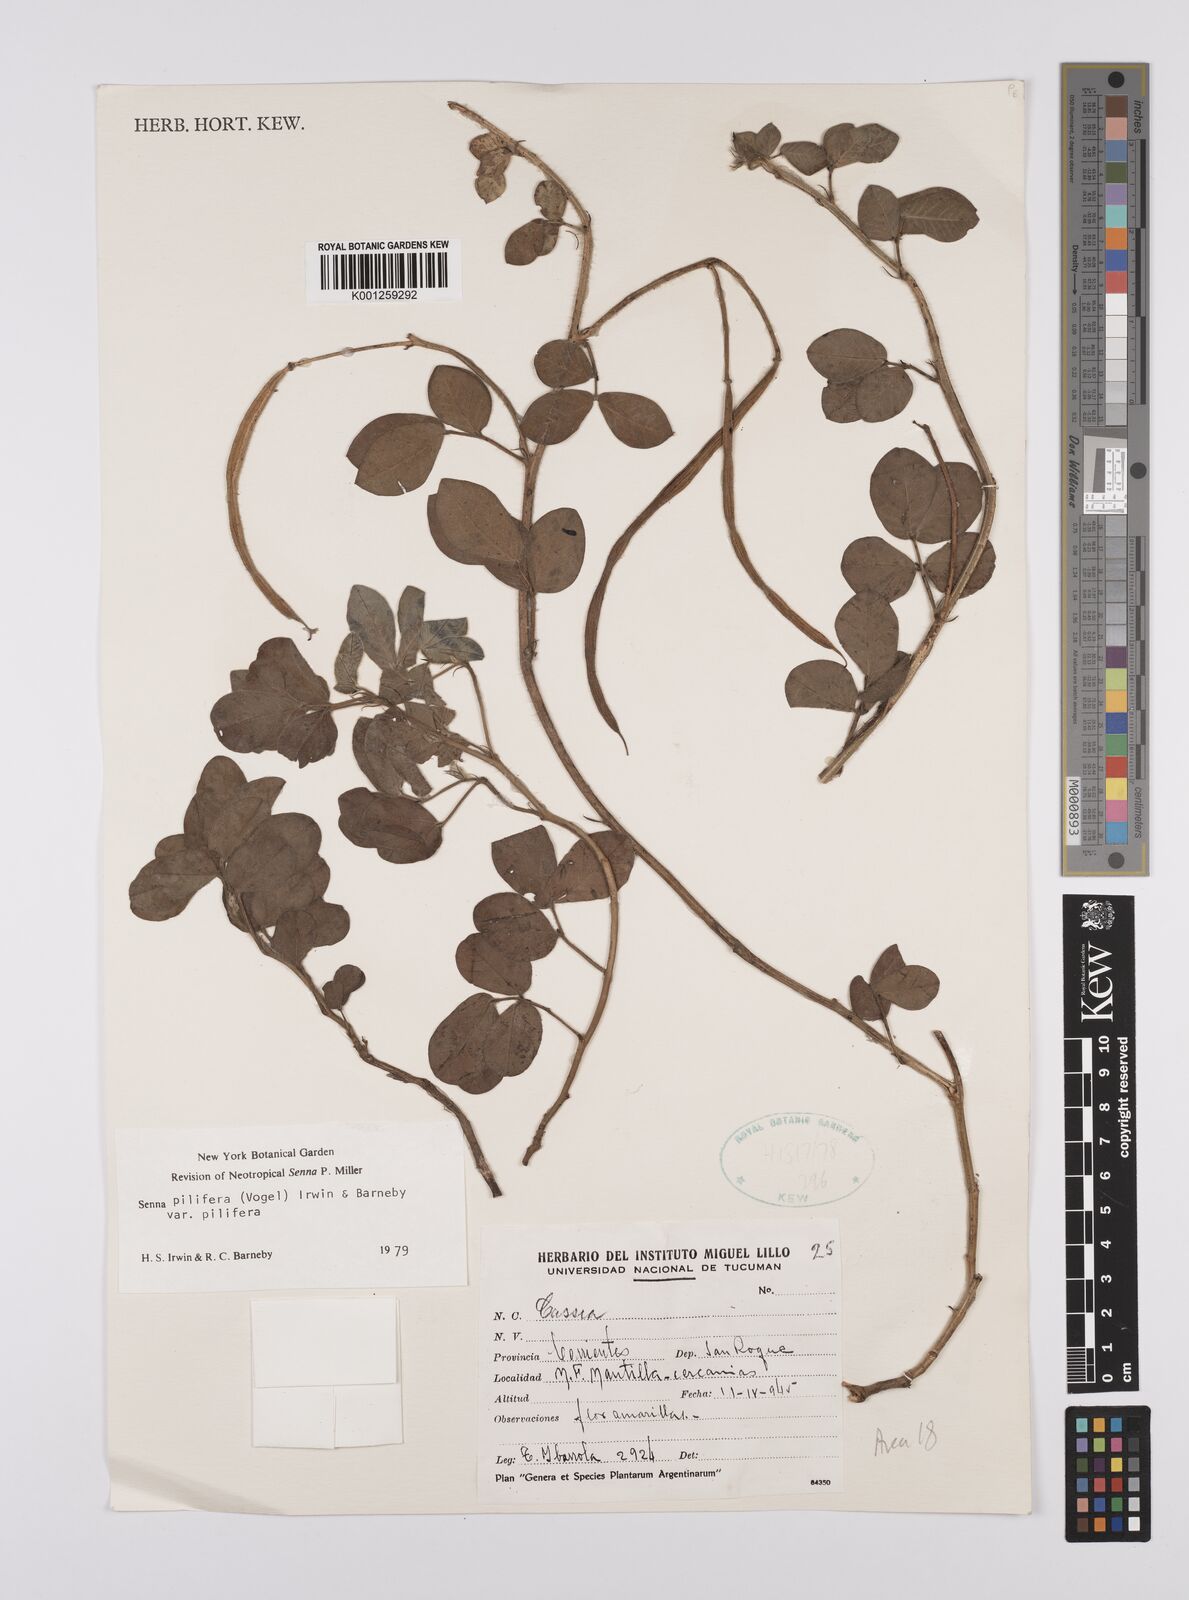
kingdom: Plantae
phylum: Tracheophyta
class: Magnoliopsida
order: Fabales
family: Fabaceae
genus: Senna
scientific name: Senna pilifera
